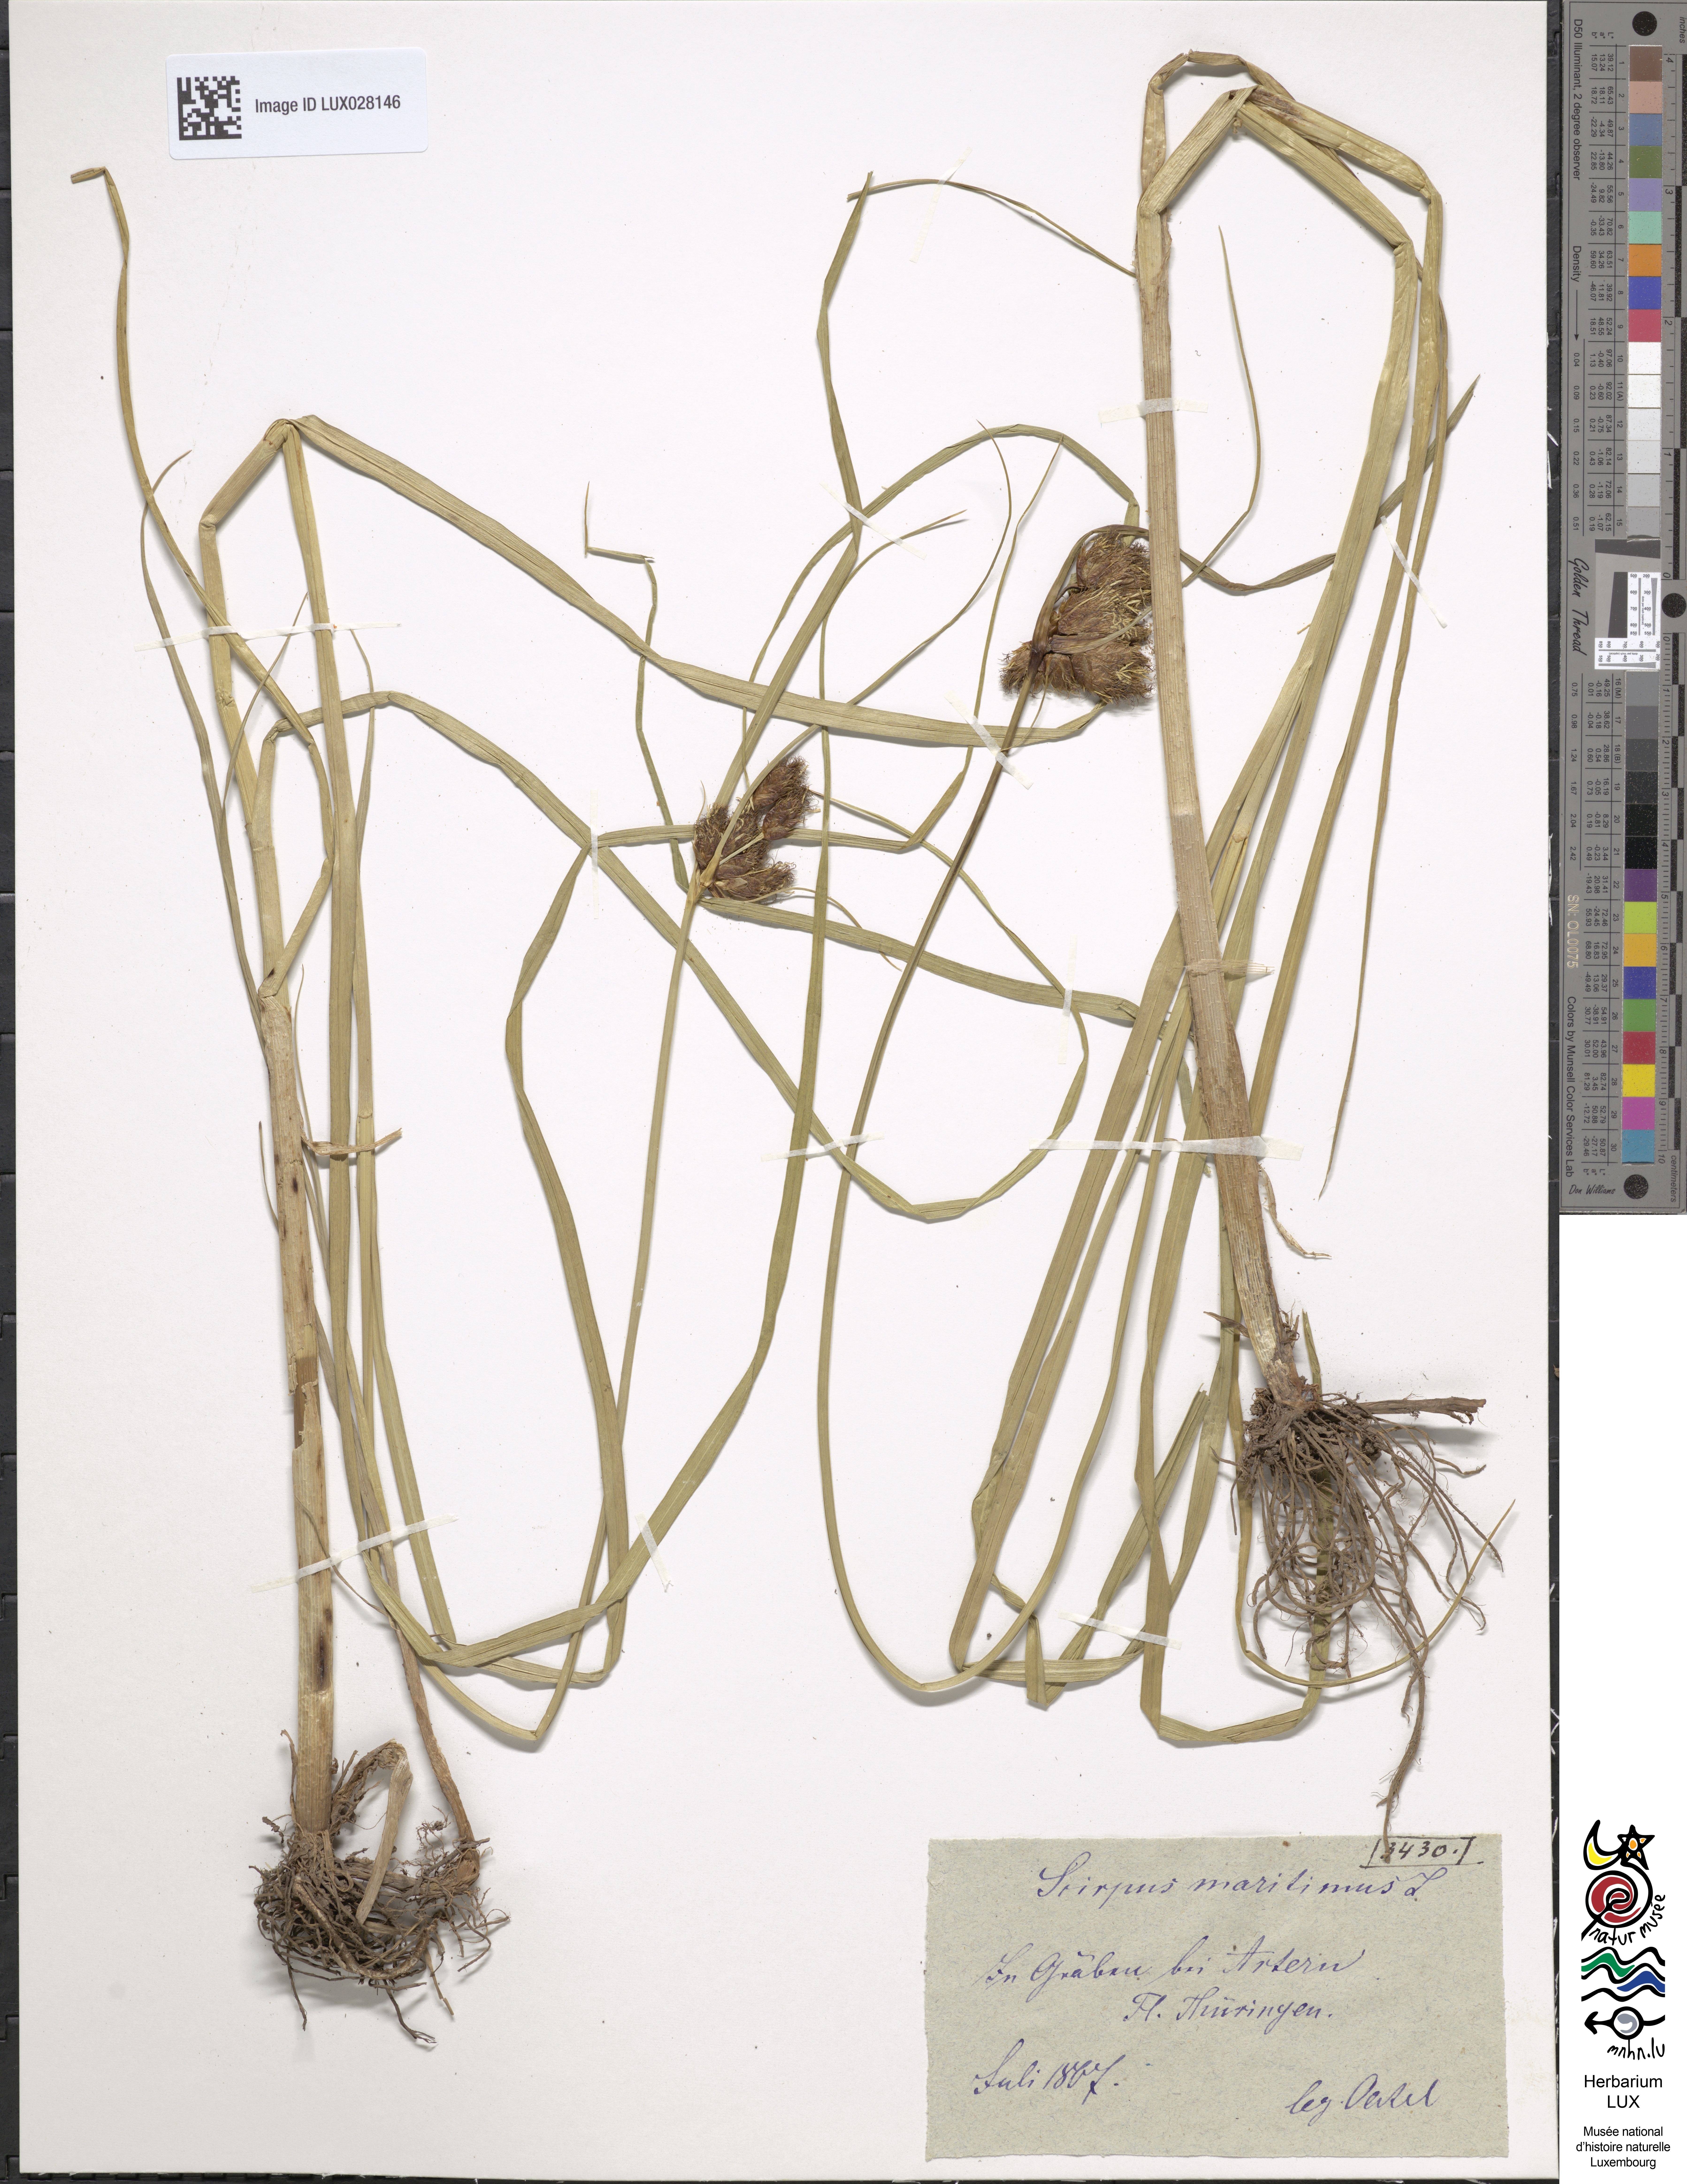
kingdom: Plantae
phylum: Tracheophyta
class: Liliopsida
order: Poales
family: Cyperaceae
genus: Bolboschoenus
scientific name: Bolboschoenus maritimus
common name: Sea club-rush
